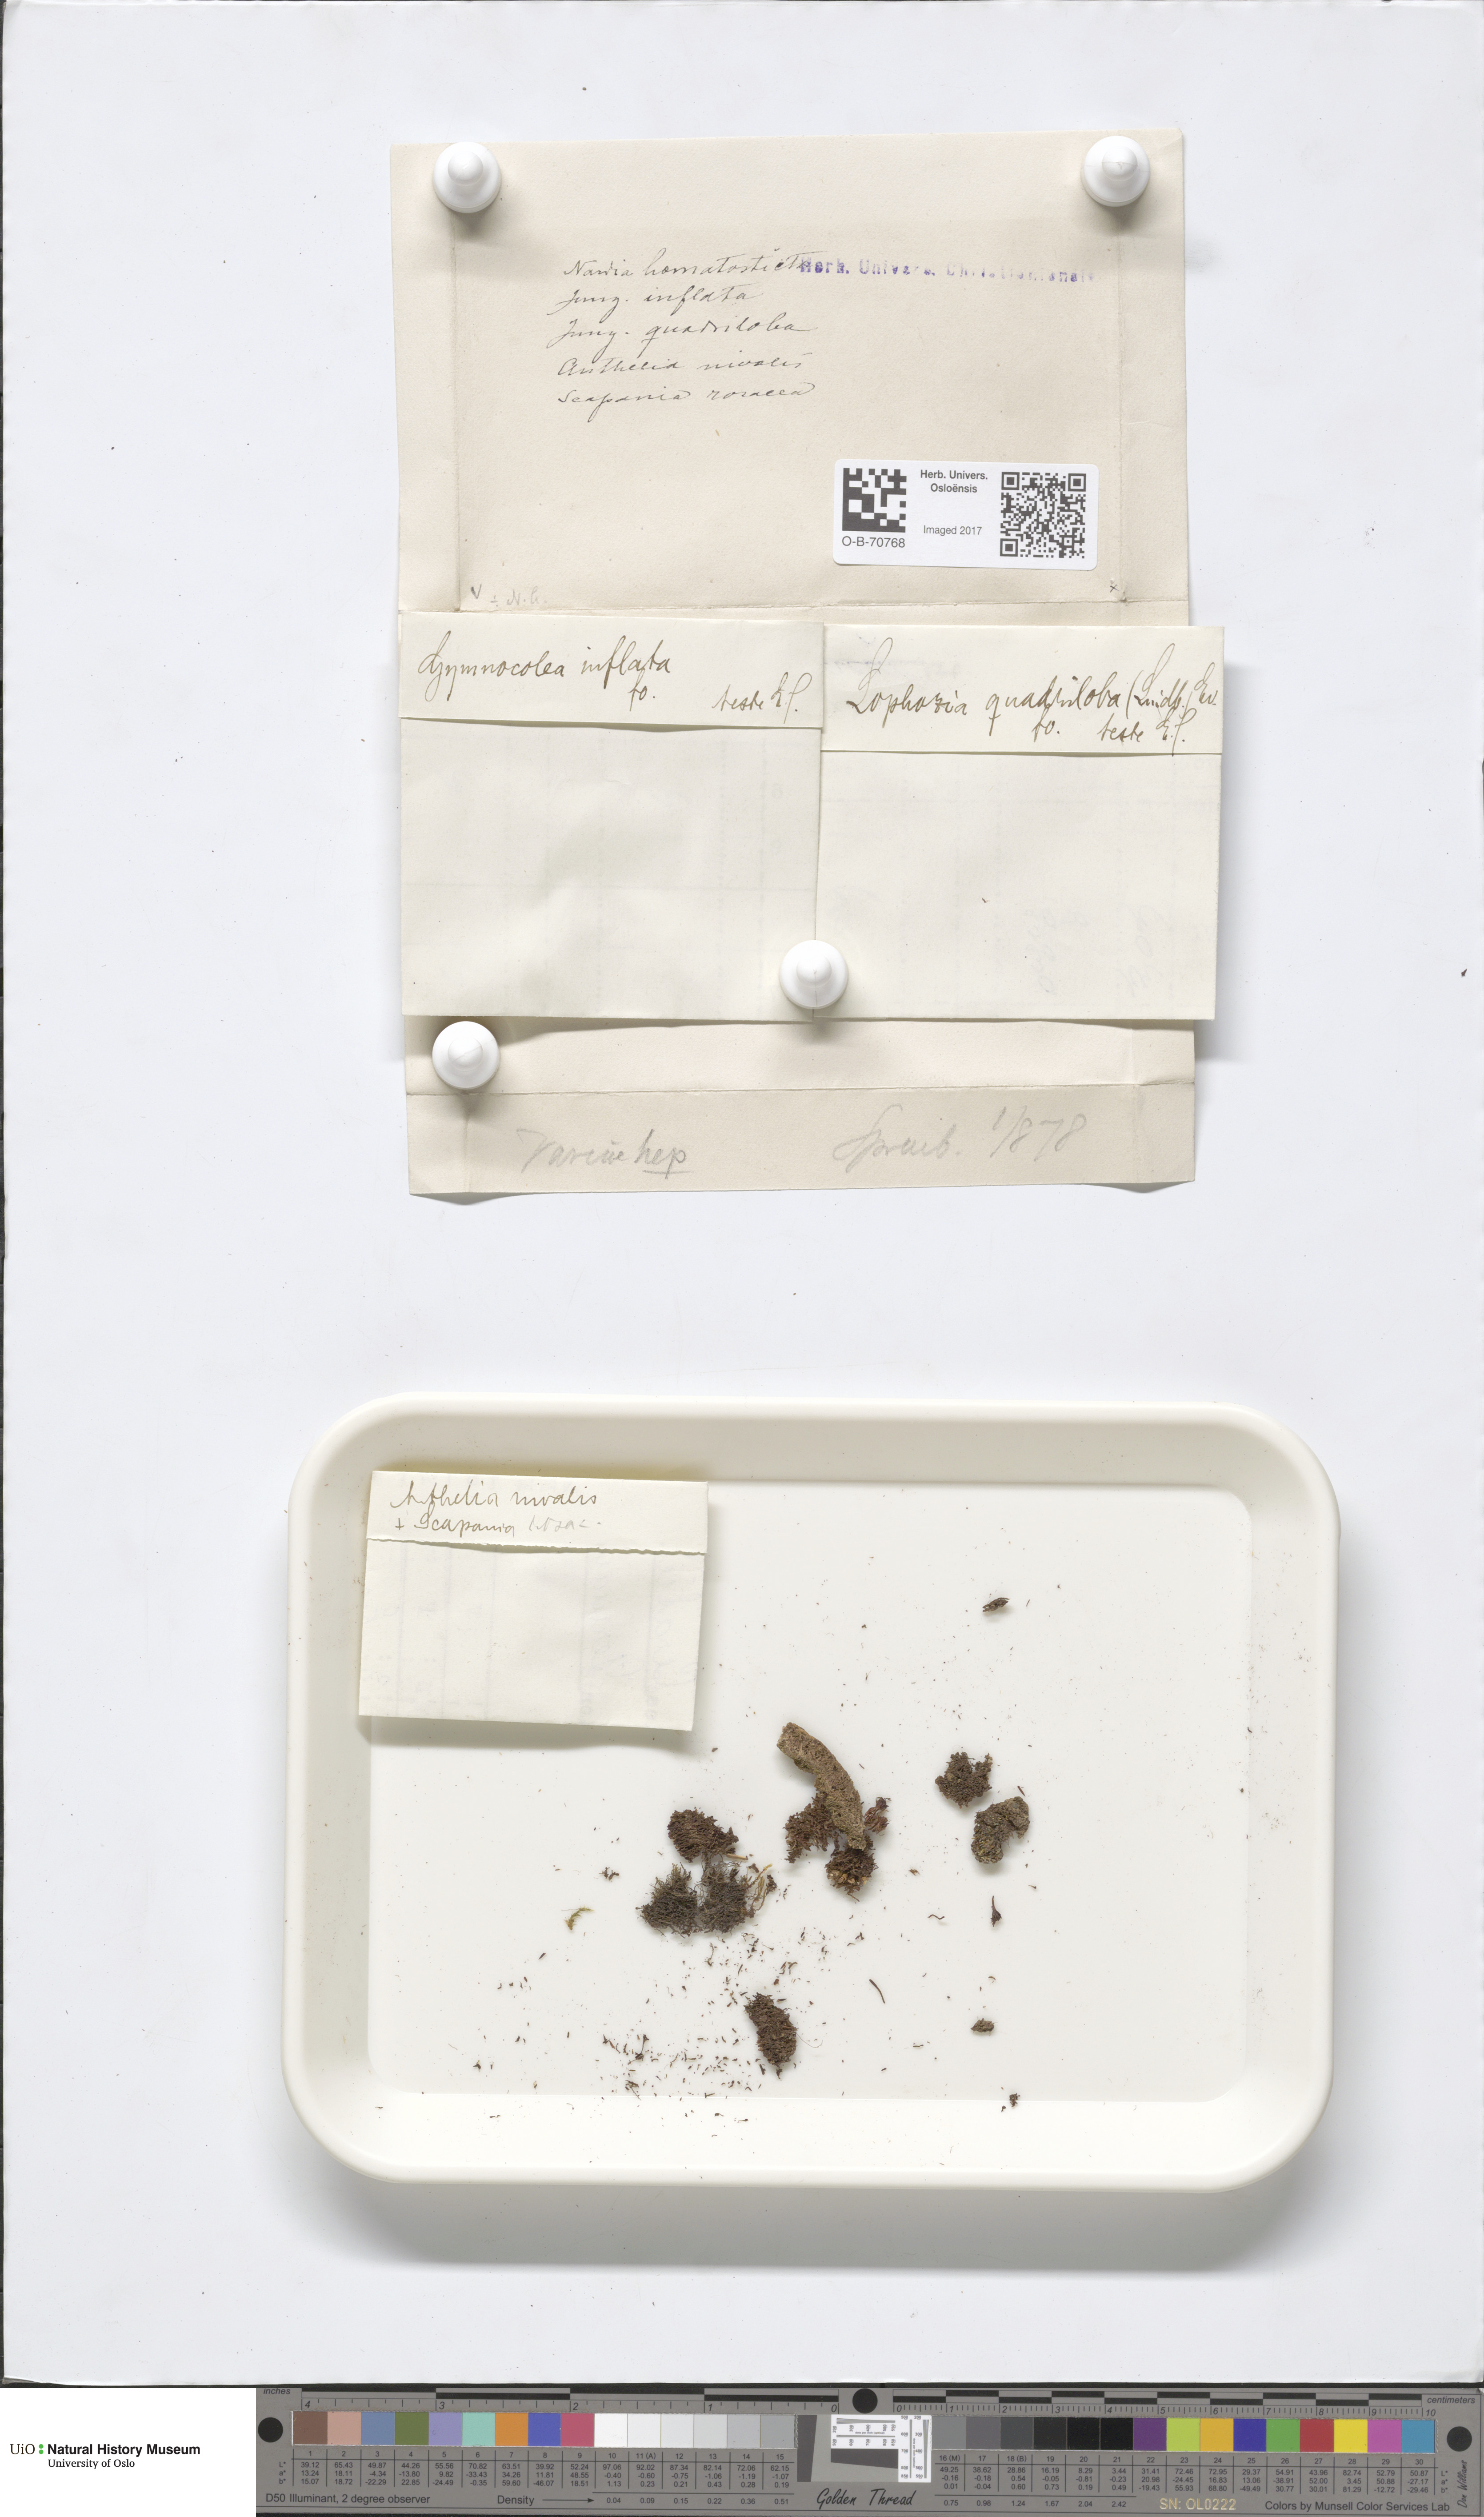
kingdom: Plantae
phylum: Marchantiophyta
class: Jungermanniopsida
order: Jungermanniales
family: Anastrophyllaceae
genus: Schljakovianthus
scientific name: Schljakovianthus quadrilobus
